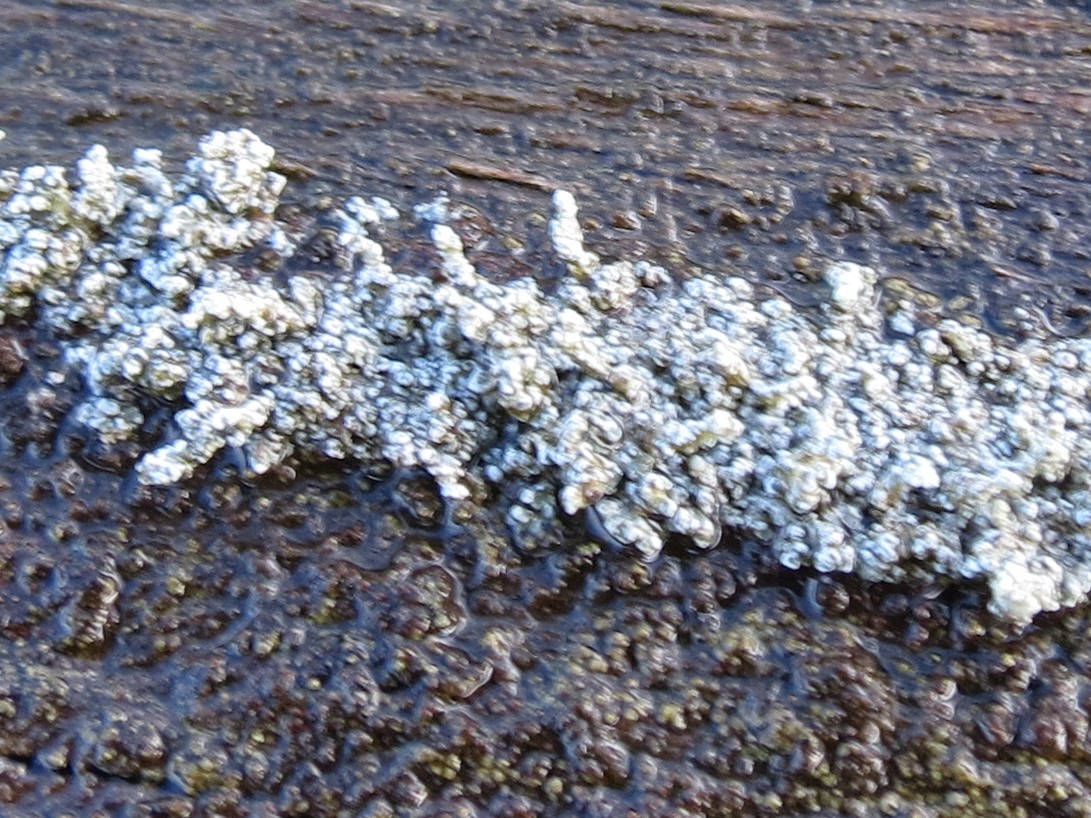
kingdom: Fungi
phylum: Ascomycota
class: Lecanoromycetes
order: Lecanorales
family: Stereocaulaceae
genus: Stereocaulon
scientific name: Stereocaulon
